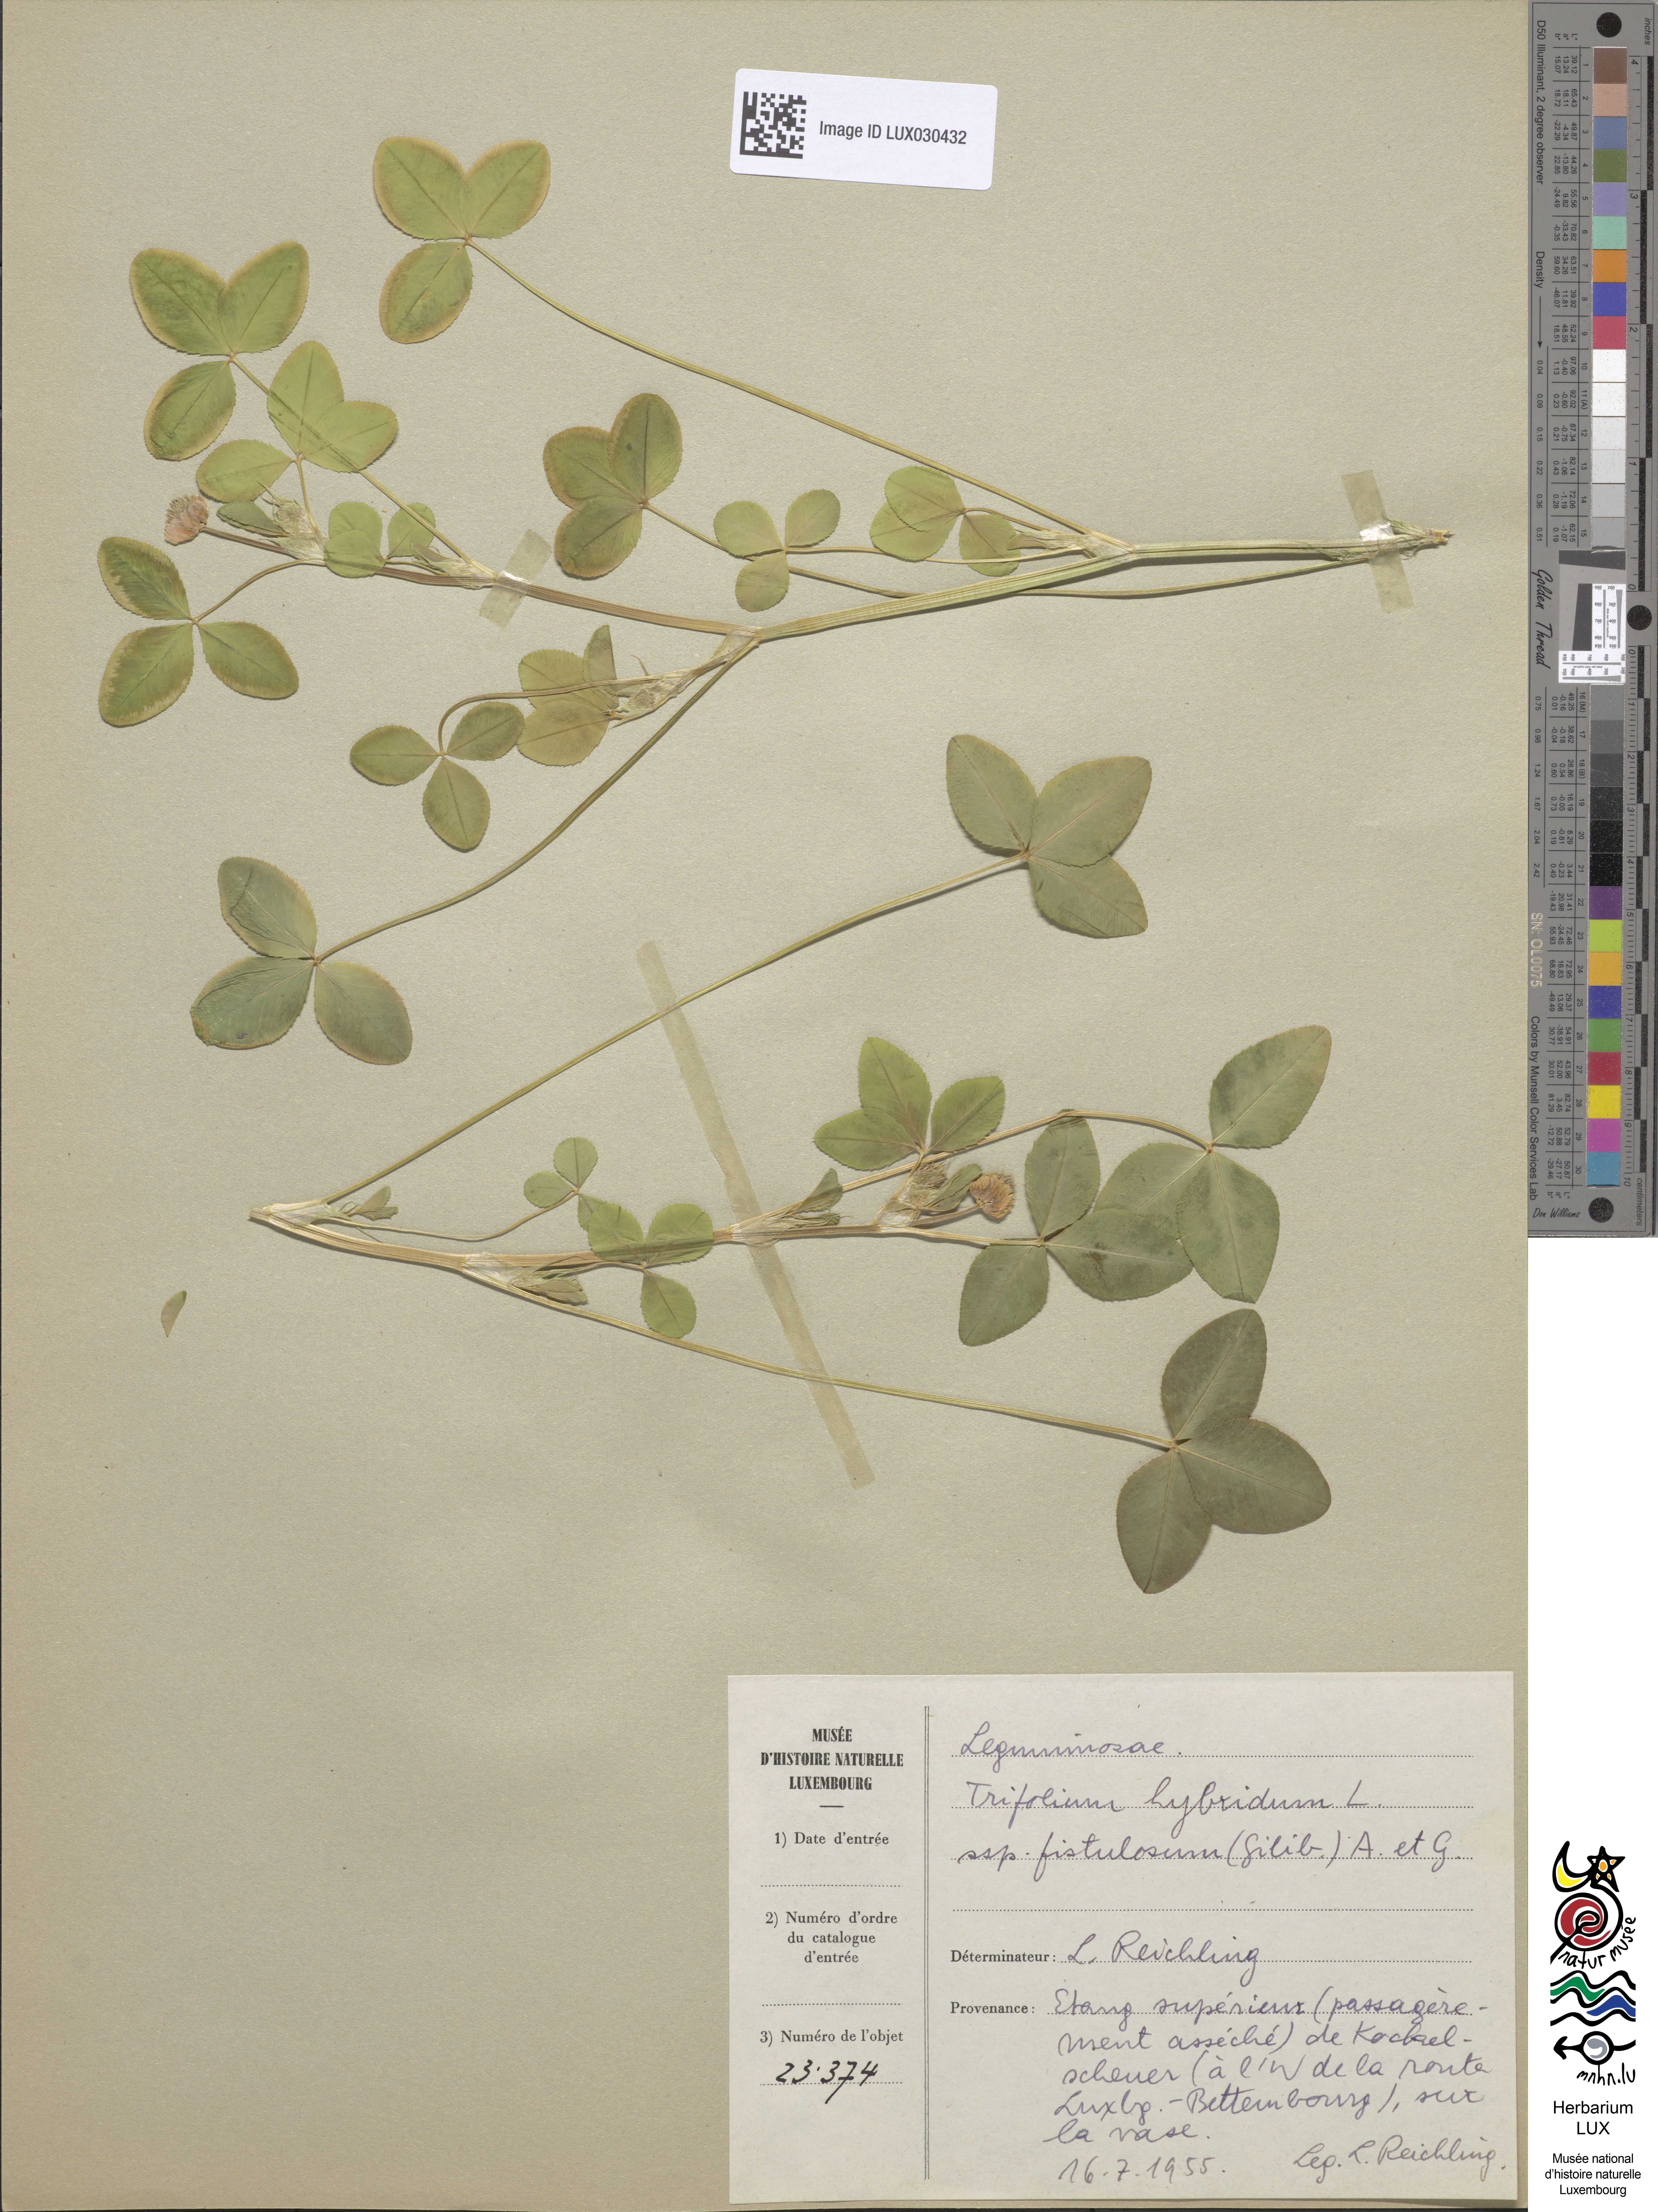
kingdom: Plantae
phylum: Tracheophyta
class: Magnoliopsida
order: Fabales
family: Fabaceae
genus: Trifolium
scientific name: Trifolium hybridum
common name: Alsike clover
